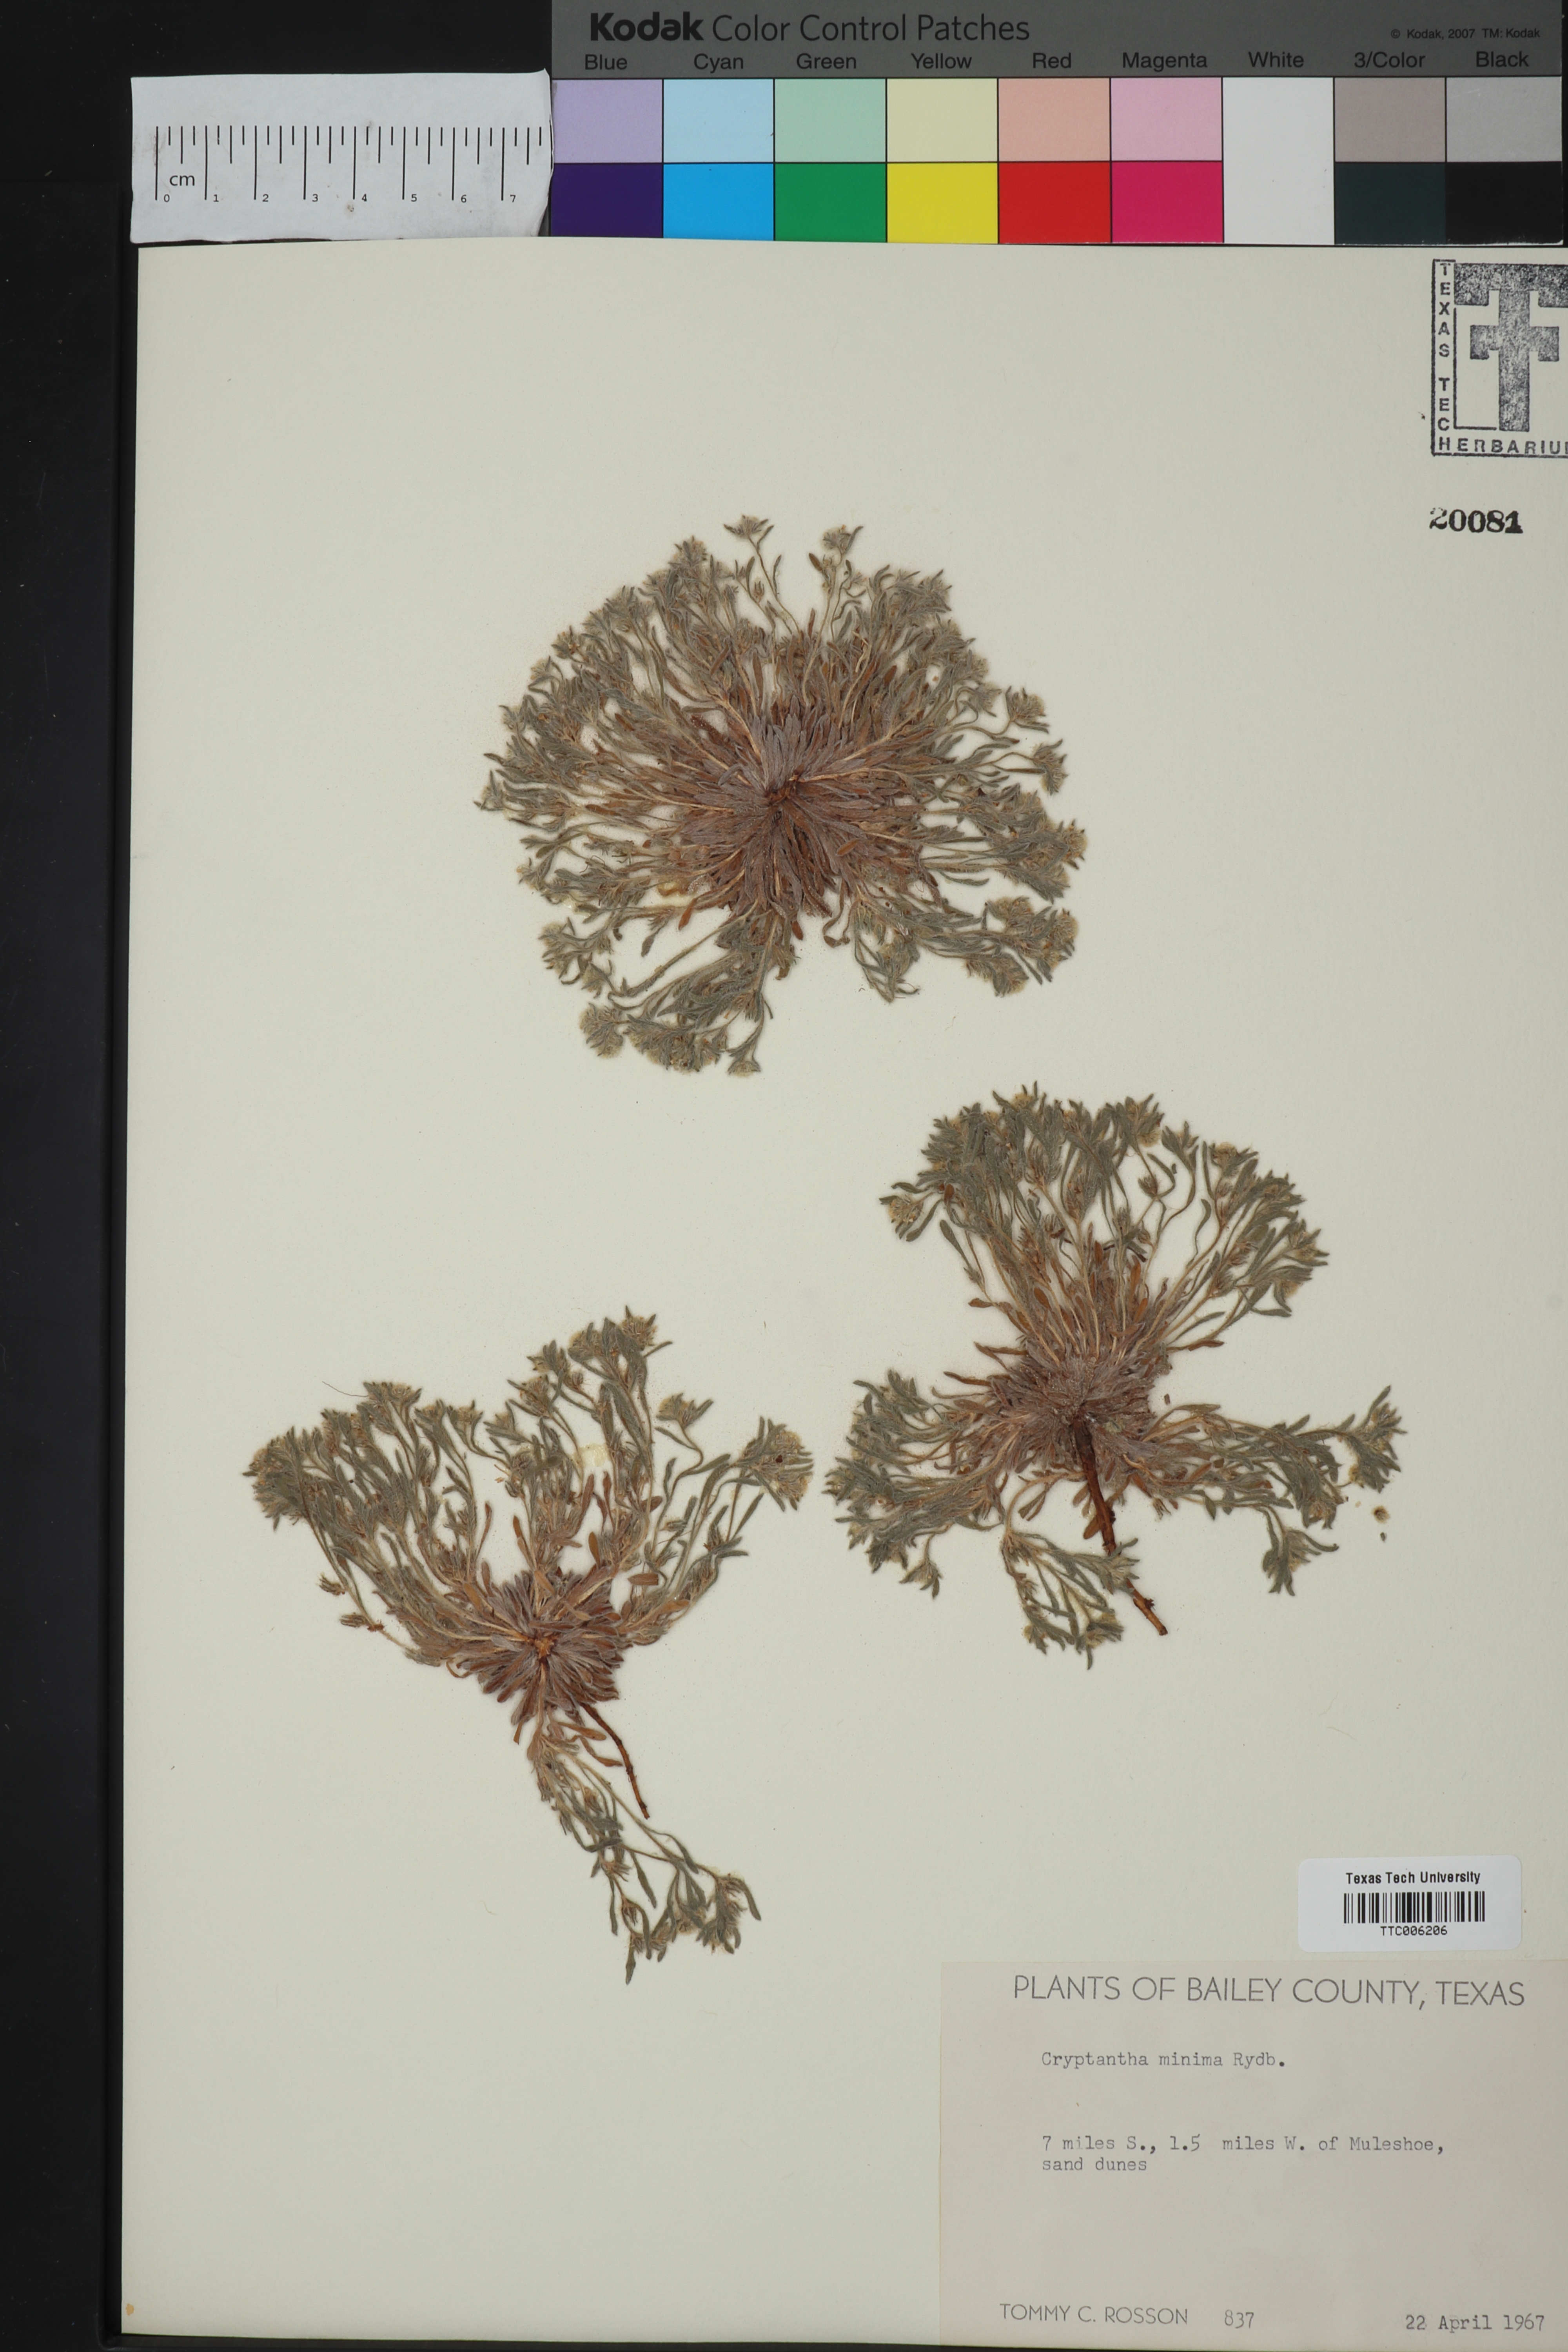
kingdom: Plantae
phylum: Tracheophyta
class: Magnoliopsida
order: Boraginales
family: Boraginaceae
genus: Cryptantha
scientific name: Cryptantha minima
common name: Little cat's-eye
